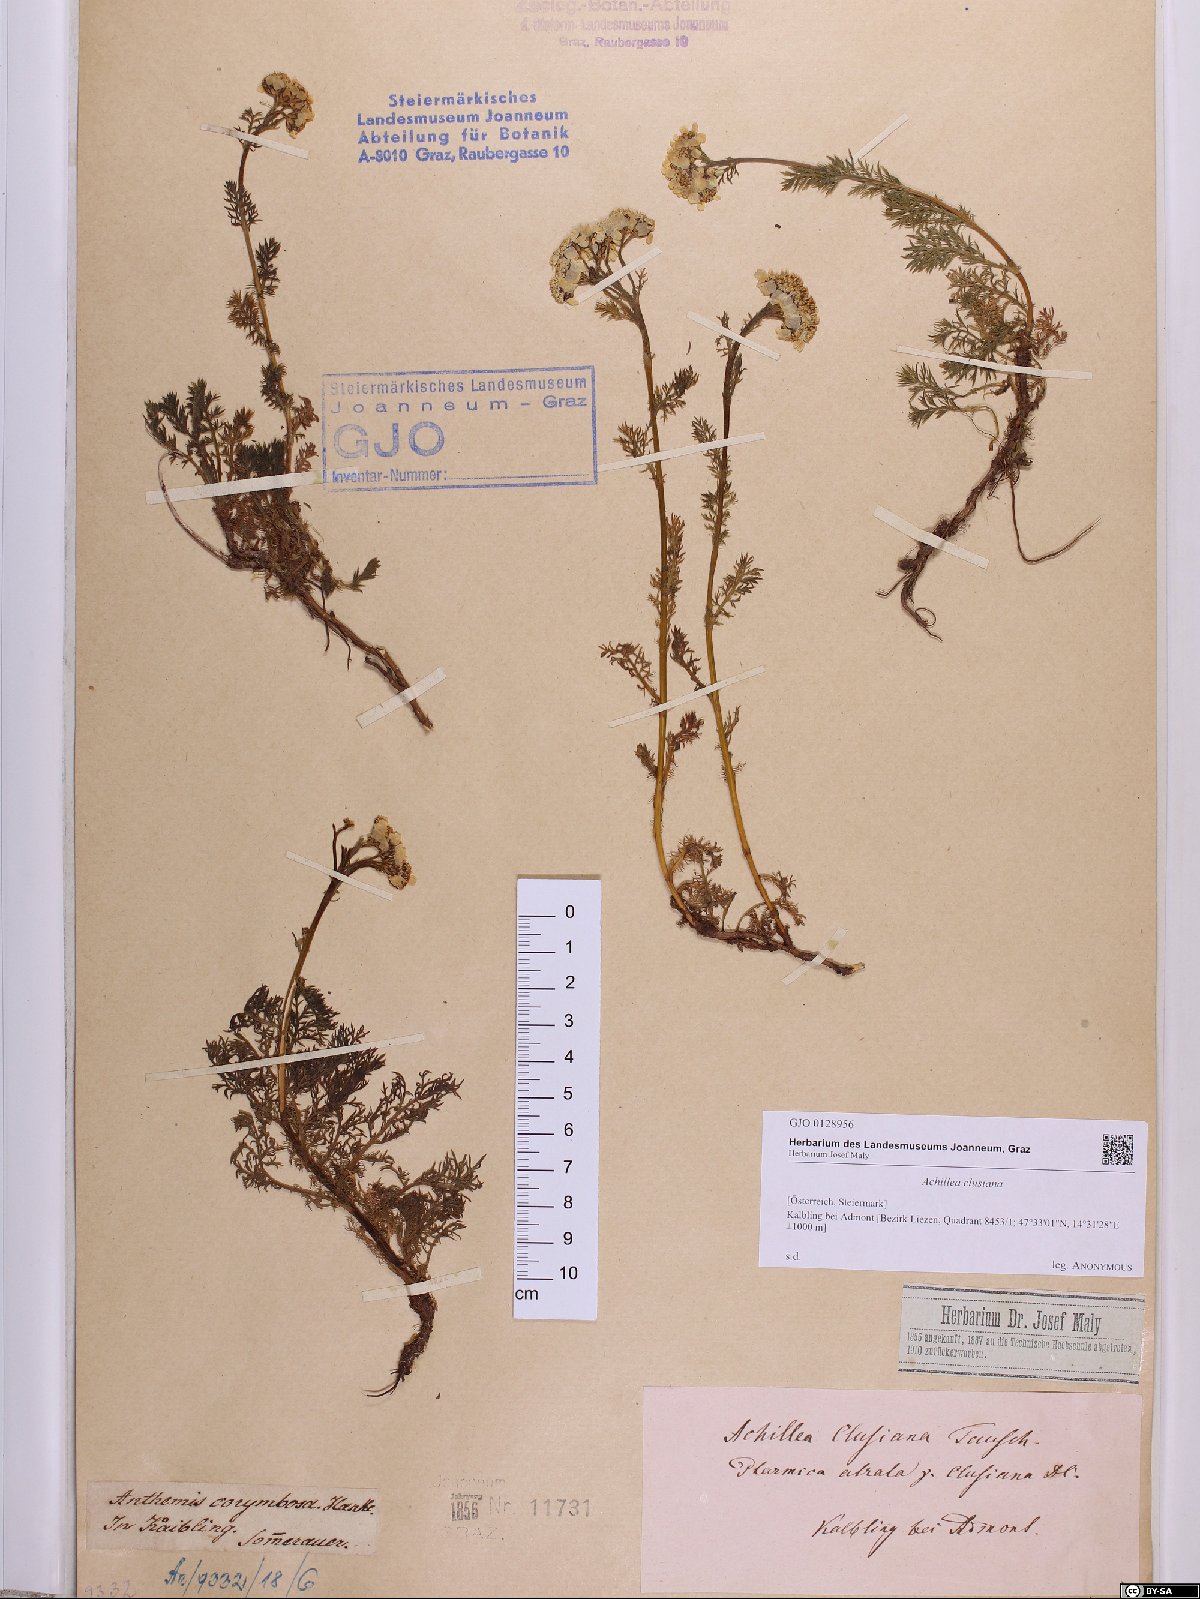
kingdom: Plantae
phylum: Tracheophyta
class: Magnoliopsida
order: Asterales
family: Asteraceae
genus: Achillea
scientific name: Achillea clusiana
